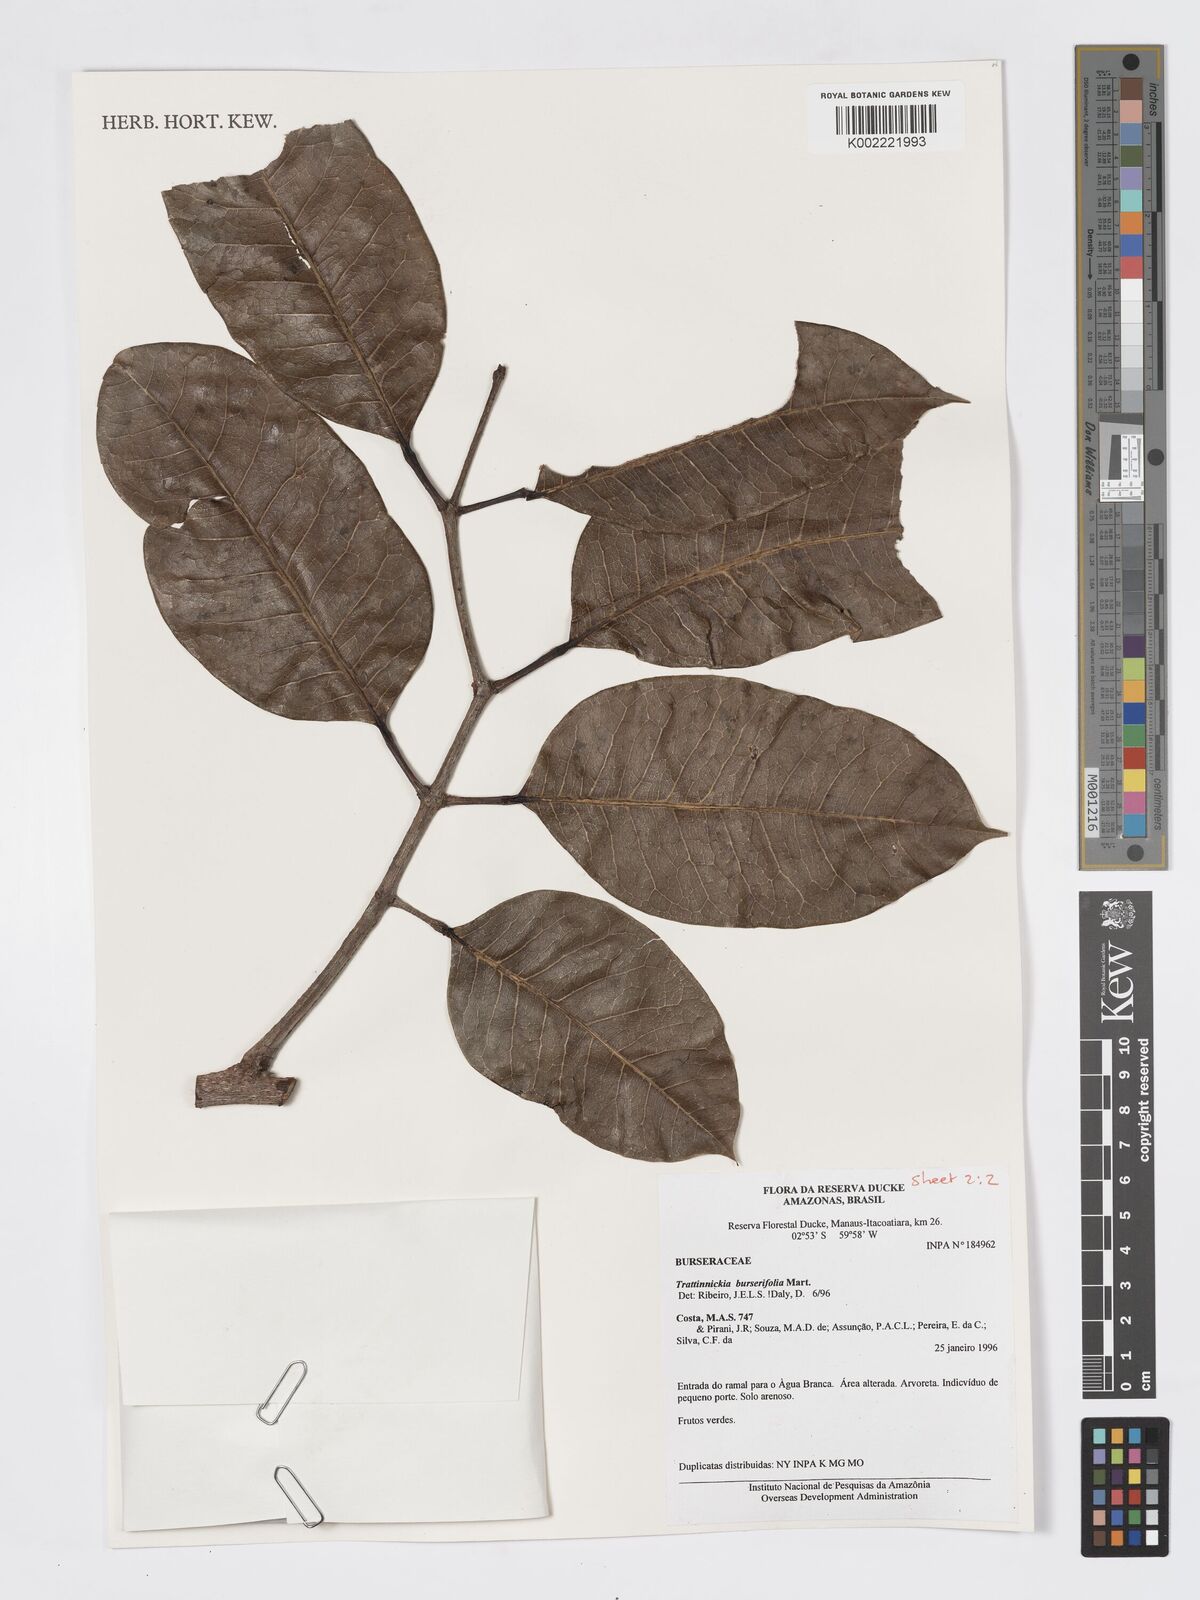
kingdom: Plantae
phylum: Tracheophyta
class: Magnoliopsida
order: Sapindales
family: Burseraceae
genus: Trattinnickia
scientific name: Trattinnickia burserifolia
